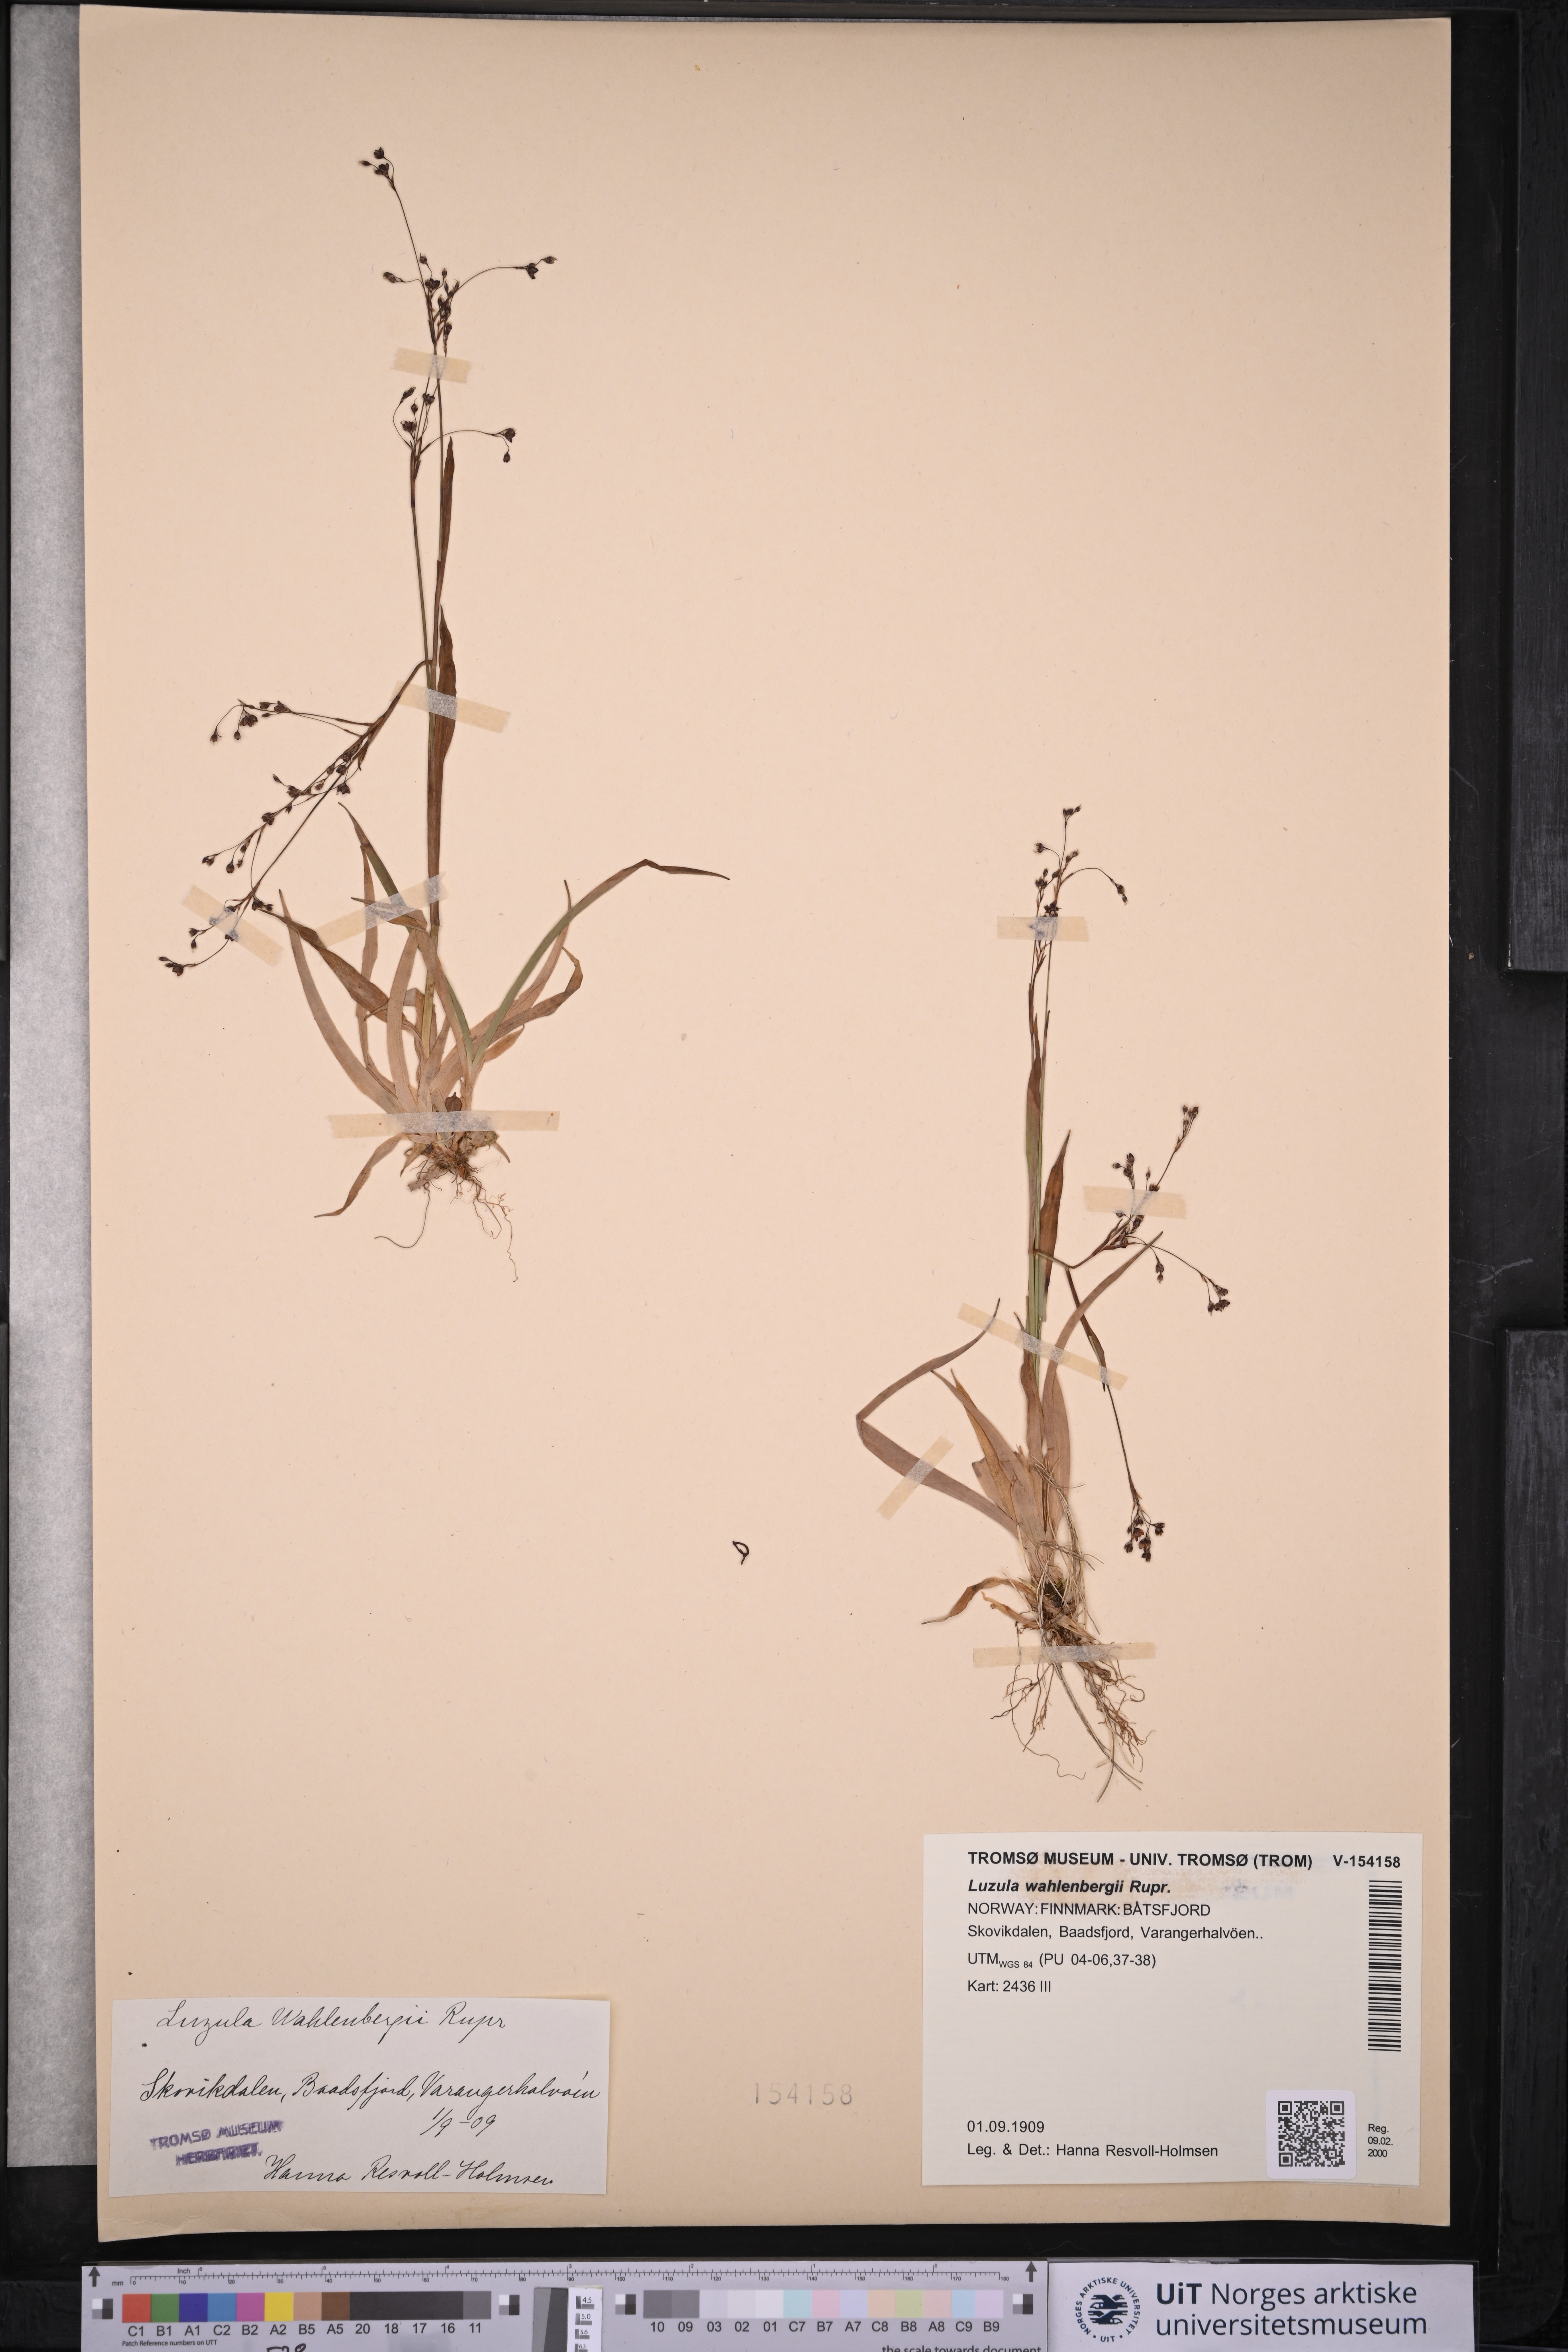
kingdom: Plantae
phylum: Tracheophyta
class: Liliopsida
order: Poales
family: Juncaceae
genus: Luzula
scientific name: Luzula wahlenbergii
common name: Wahlenberg's wood-rush
